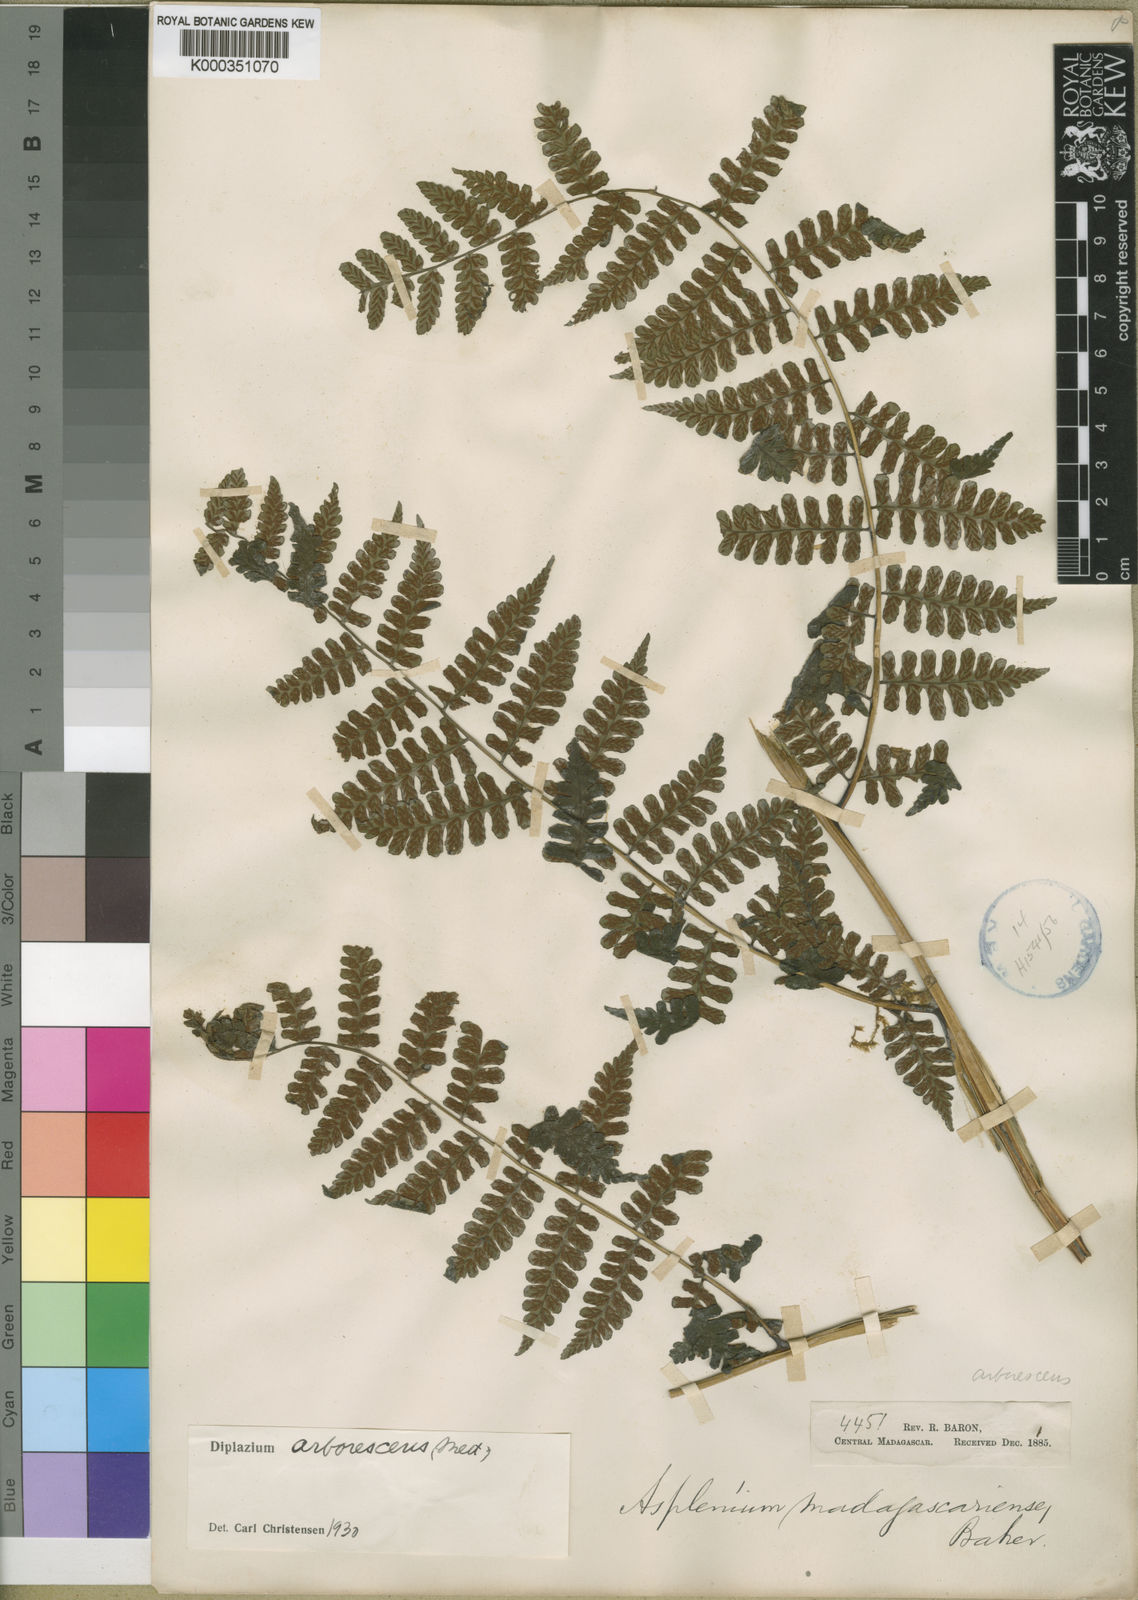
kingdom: Plantae
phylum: Tracheophyta
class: Polypodiopsida
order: Polypodiales
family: Athyriaceae
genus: Diplazium
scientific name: Diplazium
